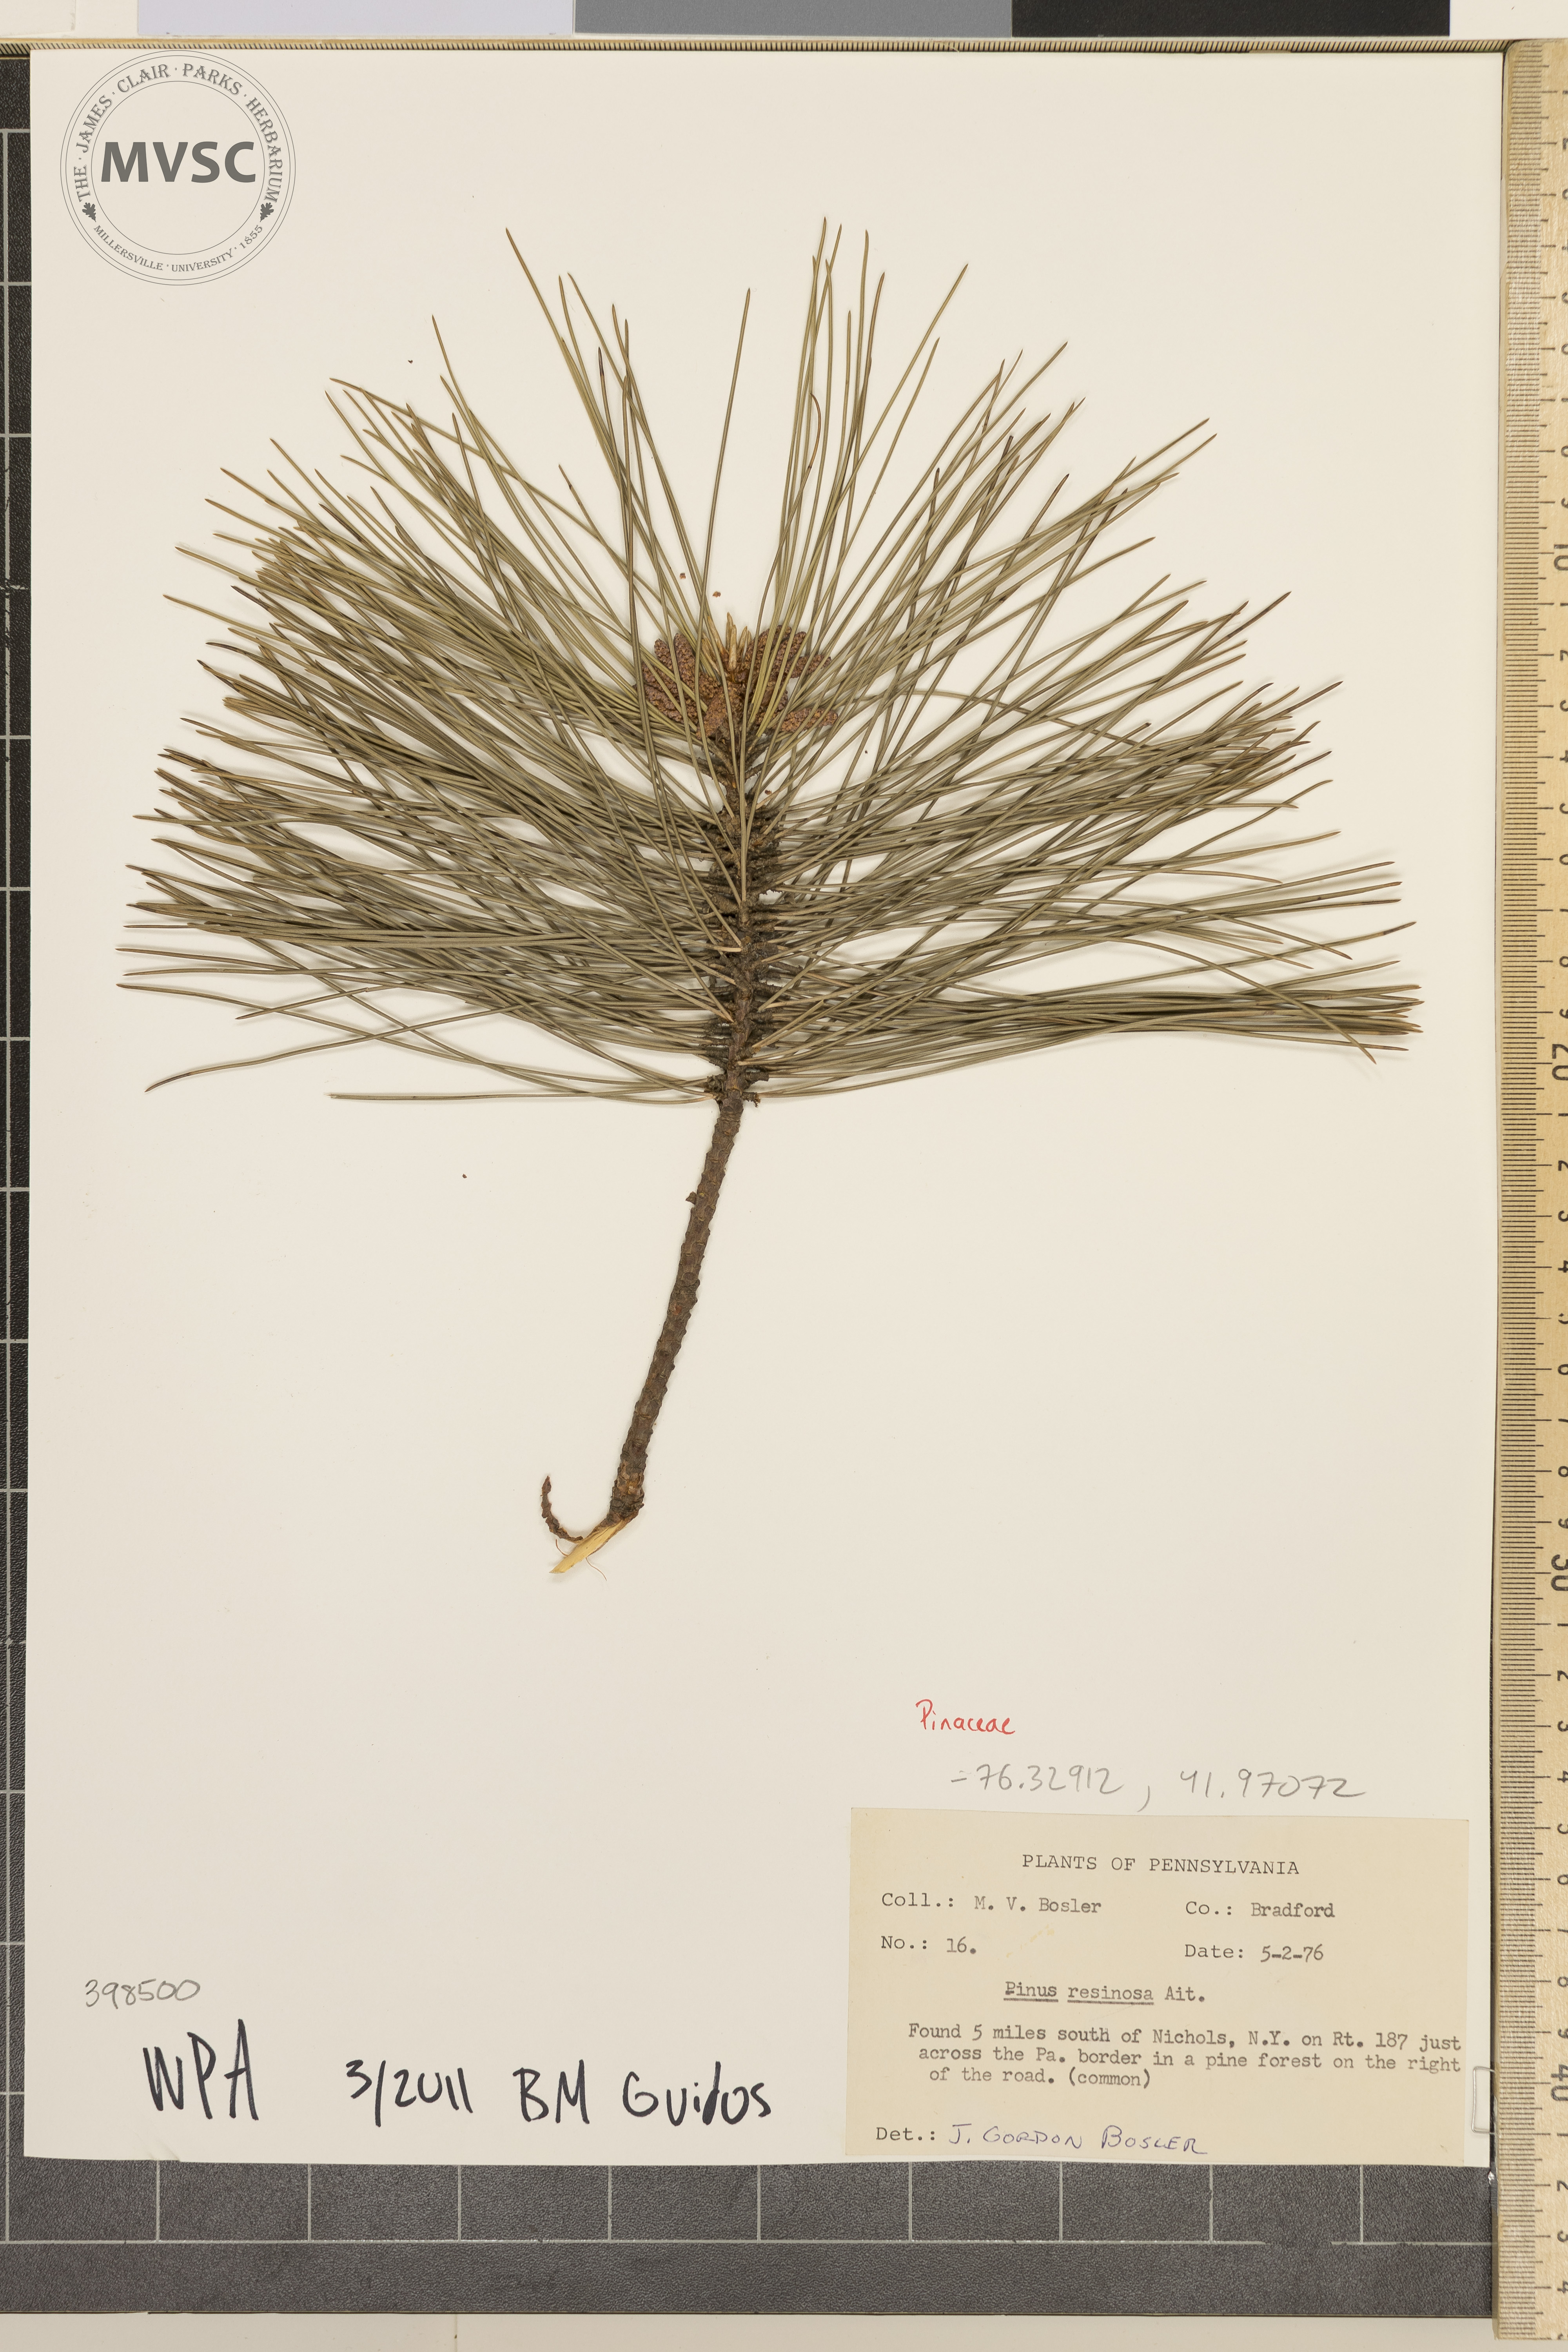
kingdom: Plantae
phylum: Tracheophyta
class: Pinopsida
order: Pinales
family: Pinaceae
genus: Pinus
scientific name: Pinus resinosa
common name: Norway pine
